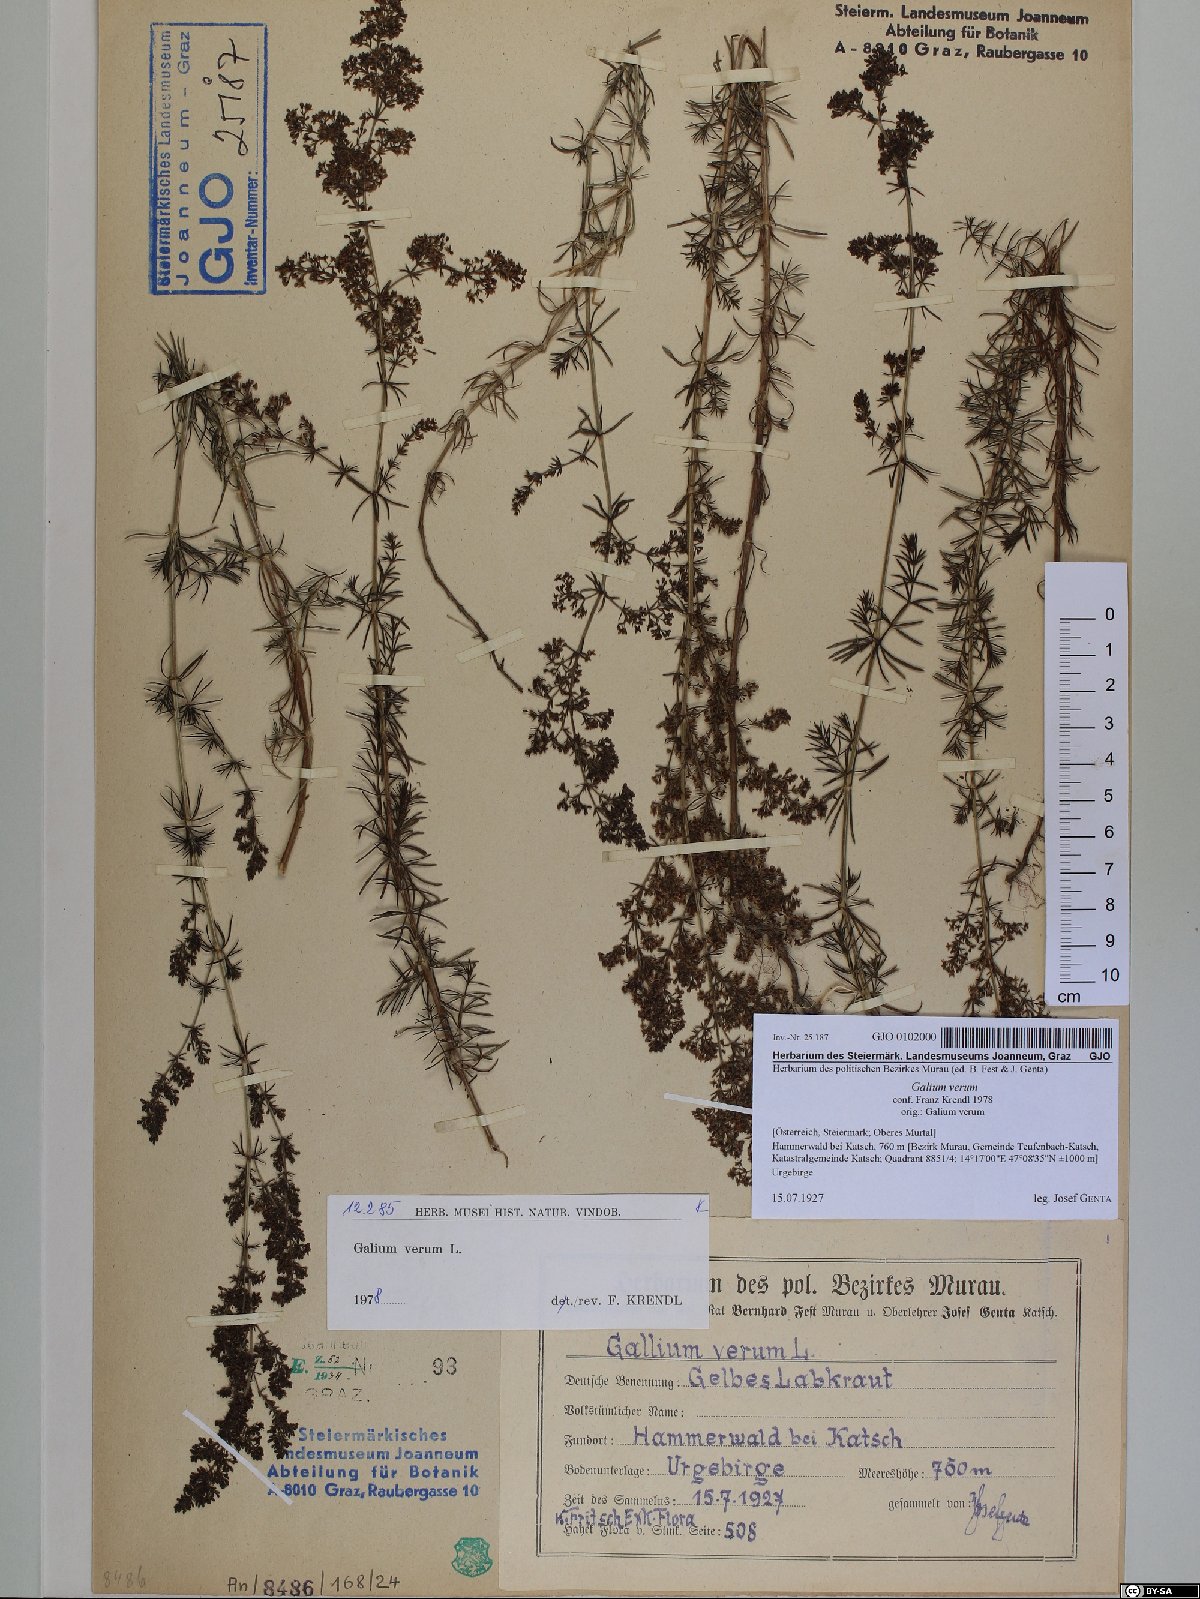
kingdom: Plantae
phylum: Tracheophyta
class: Magnoliopsida
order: Gentianales
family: Rubiaceae
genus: Galium
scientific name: Galium verum
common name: Lady's bedstraw
